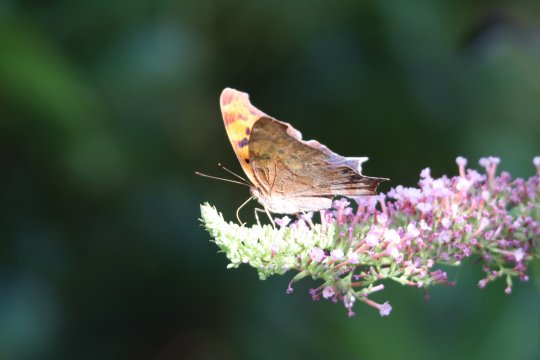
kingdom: Animalia
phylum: Arthropoda
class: Insecta
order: Lepidoptera
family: Nymphalidae
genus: Polygonia
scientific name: Polygonia interrogationis
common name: Question Mark
